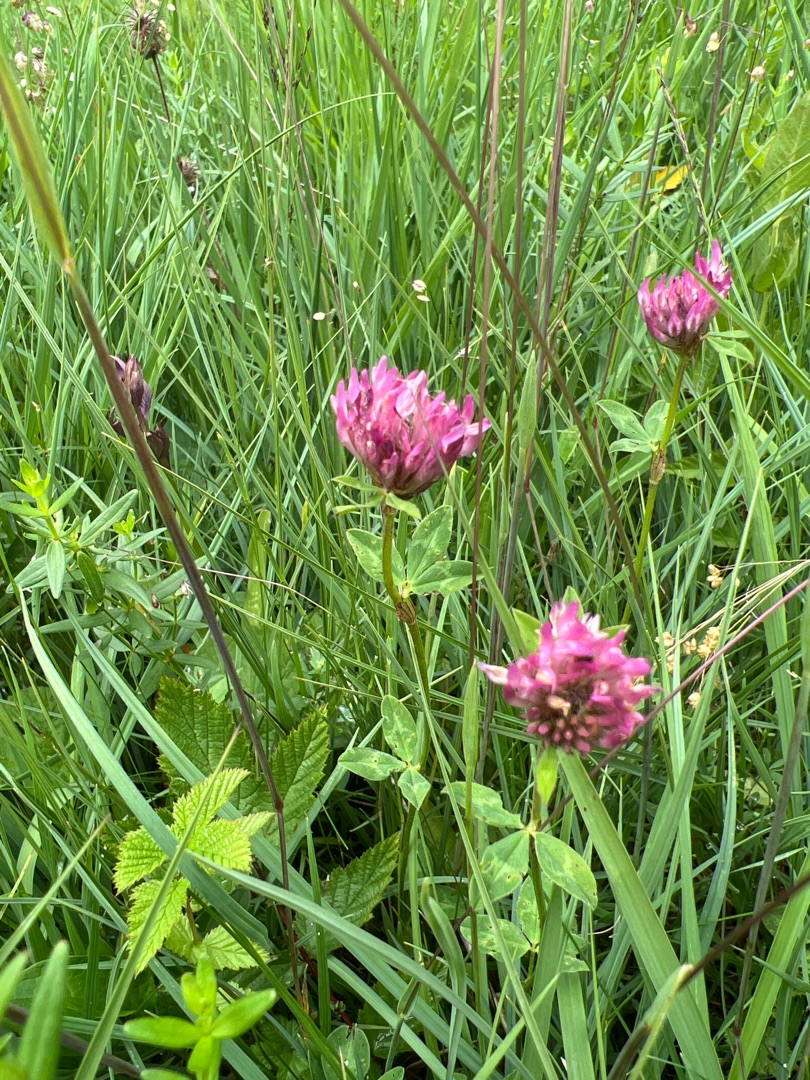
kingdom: Plantae
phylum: Tracheophyta
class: Magnoliopsida
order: Fabales
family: Fabaceae
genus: Trifolium
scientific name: Trifolium pratense
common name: Rød-kløver
